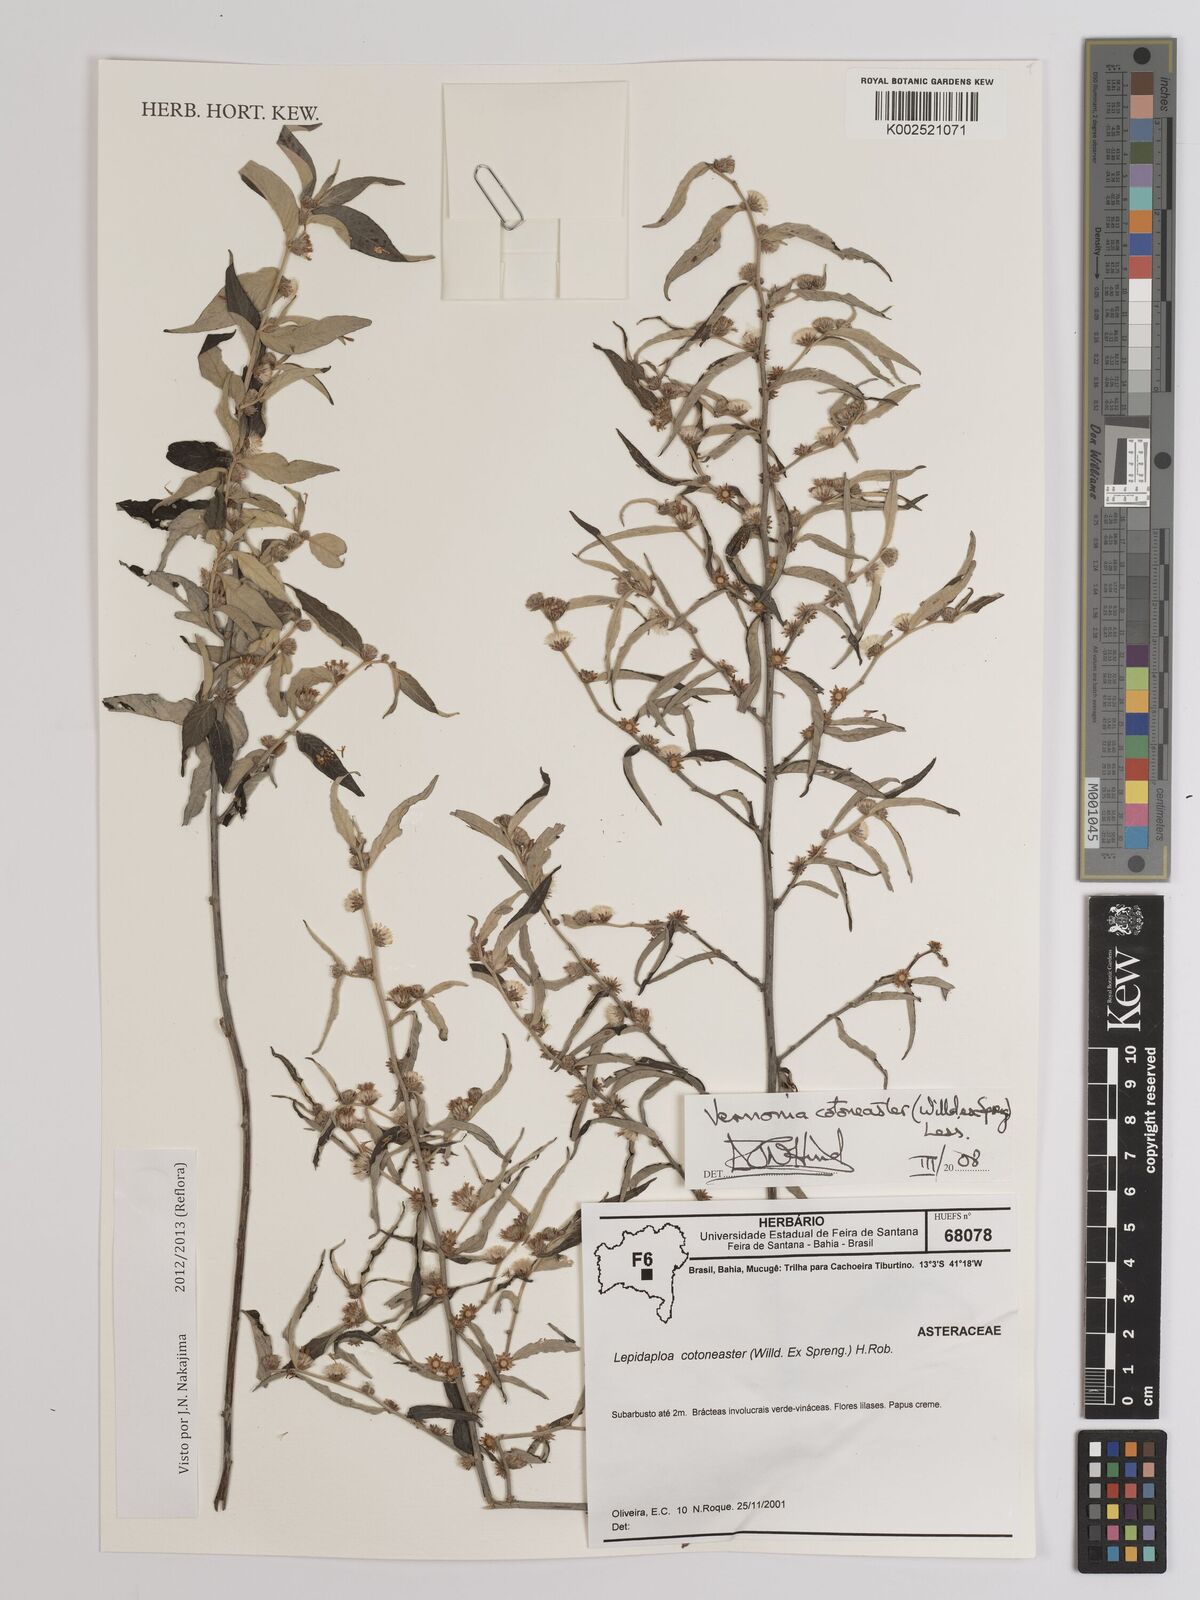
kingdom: Plantae
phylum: Tracheophyta
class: Magnoliopsida
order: Asterales
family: Asteraceae
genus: Lepidaploa
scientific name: Lepidaploa cotoneaster
